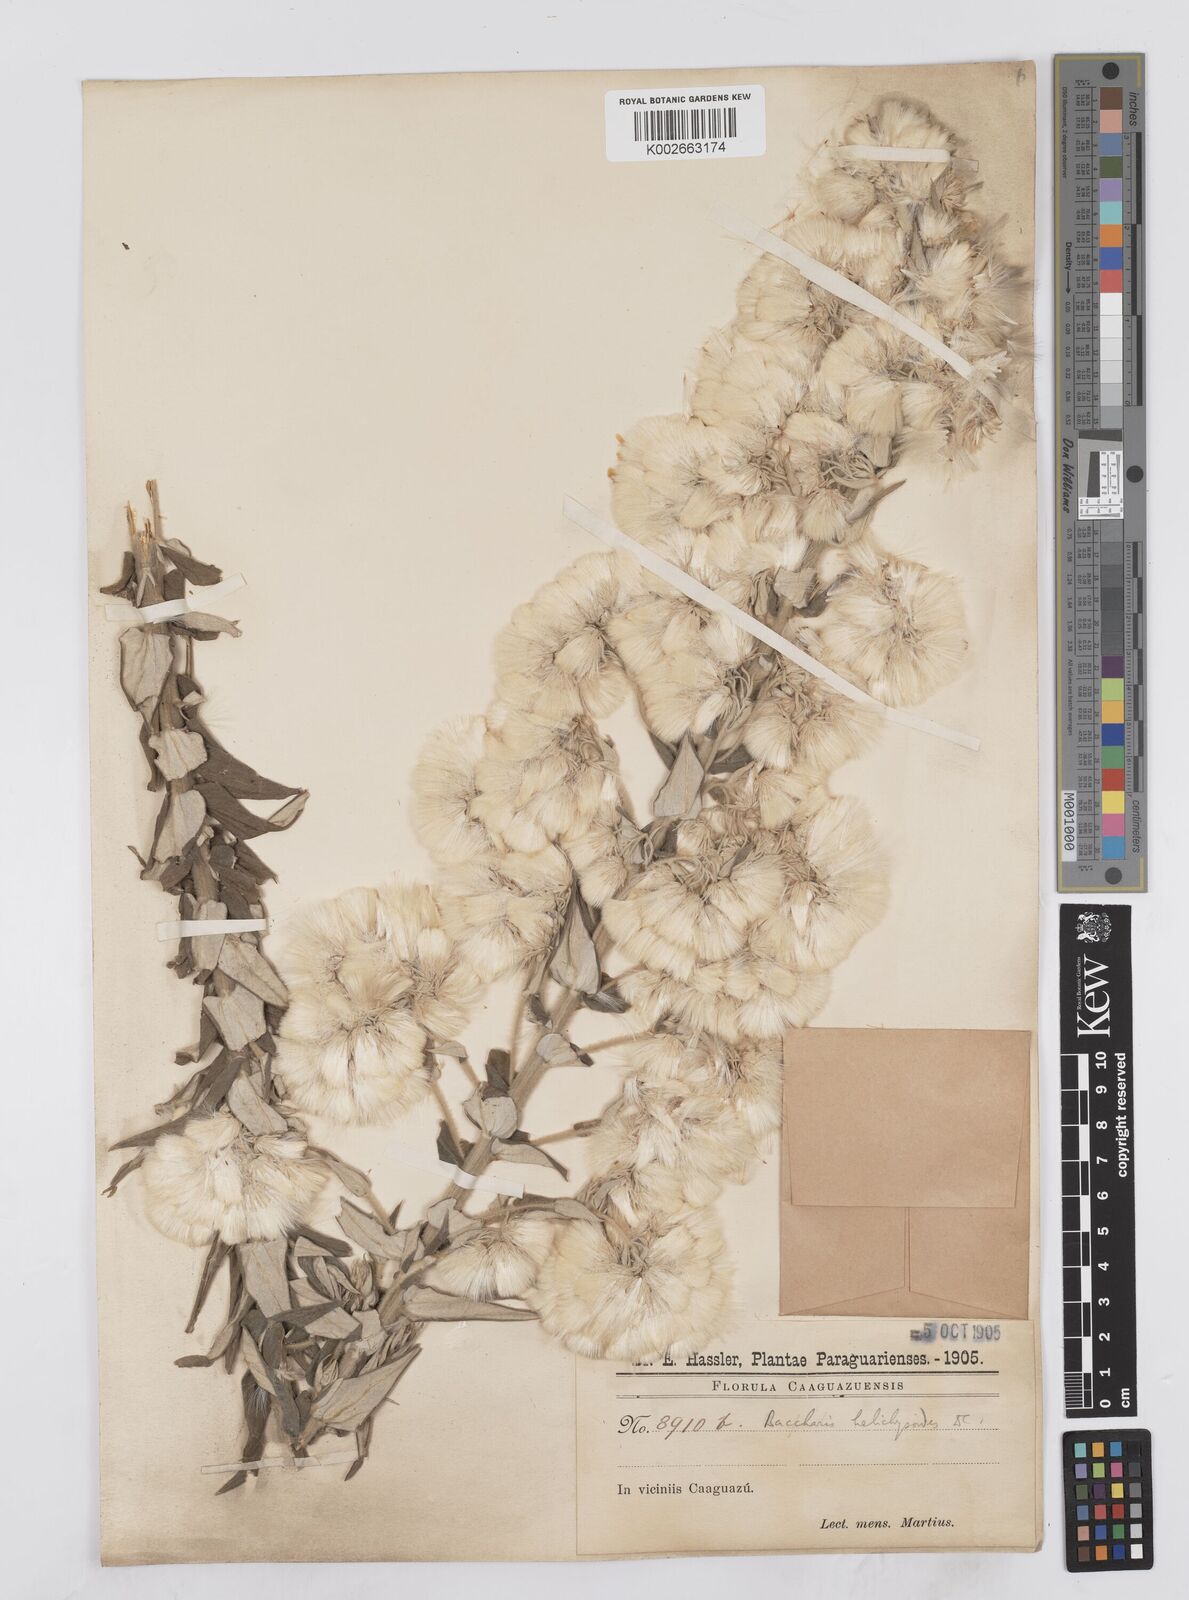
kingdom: Plantae
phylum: Tracheophyta
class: Magnoliopsida
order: Asterales
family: Asteraceae
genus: Baccharis
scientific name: Baccharis helichrysoides
